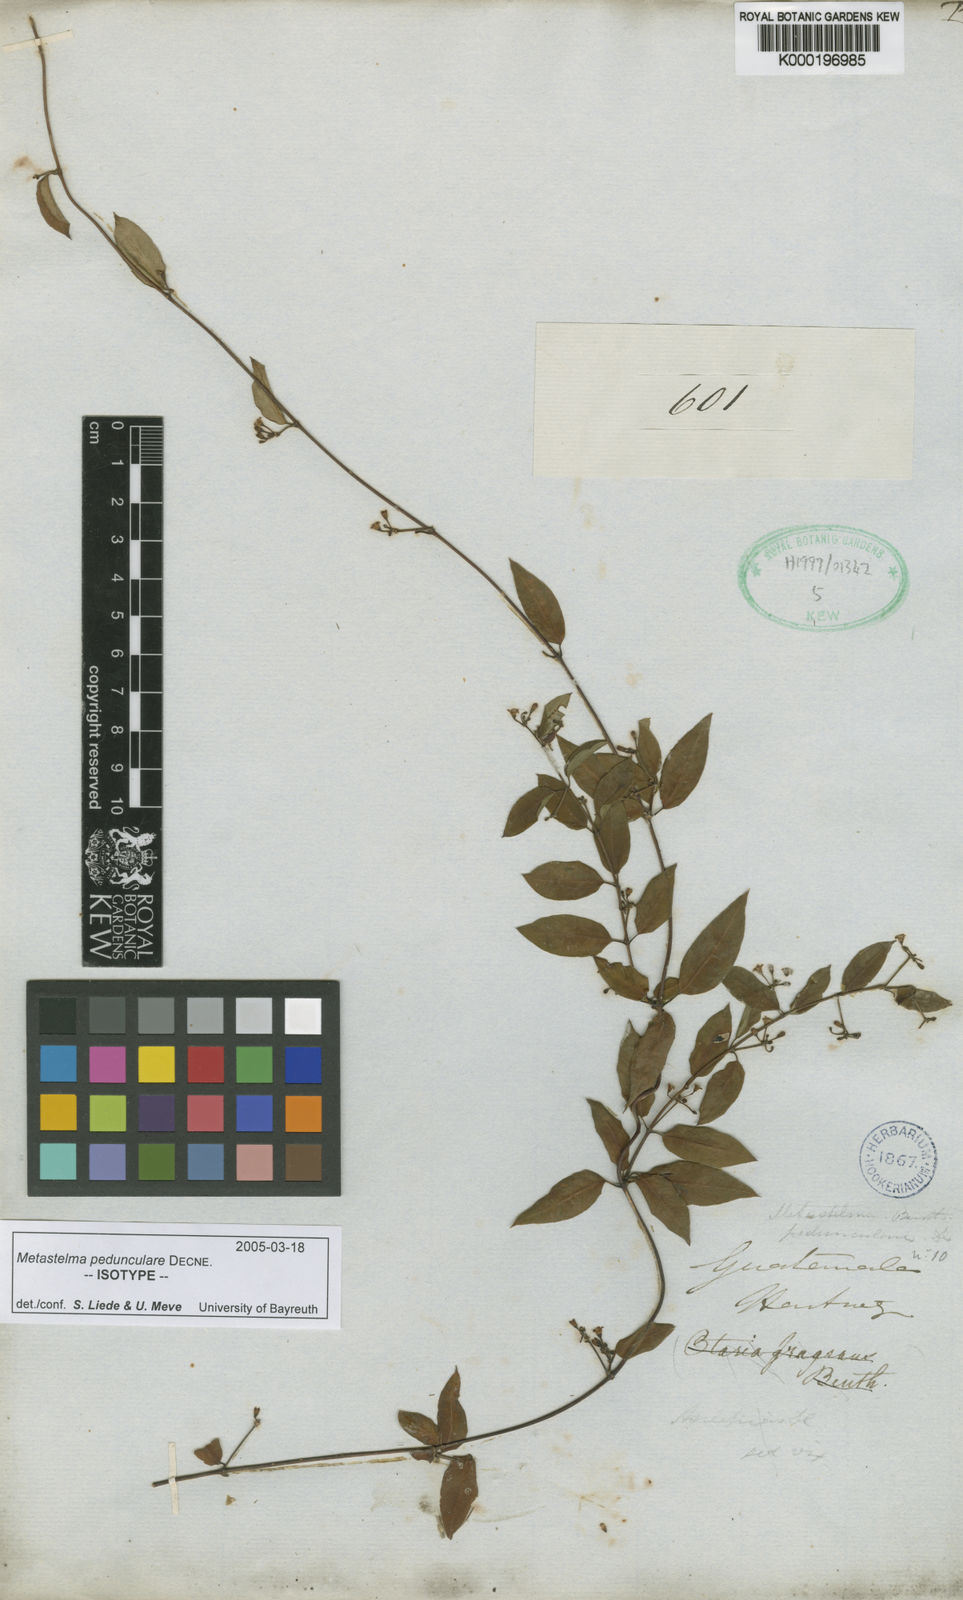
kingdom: Plantae
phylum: Tracheophyta
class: Magnoliopsida
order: Gentianales
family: Apocynaceae
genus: Metastelma
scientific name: Metastelma pedunculare
